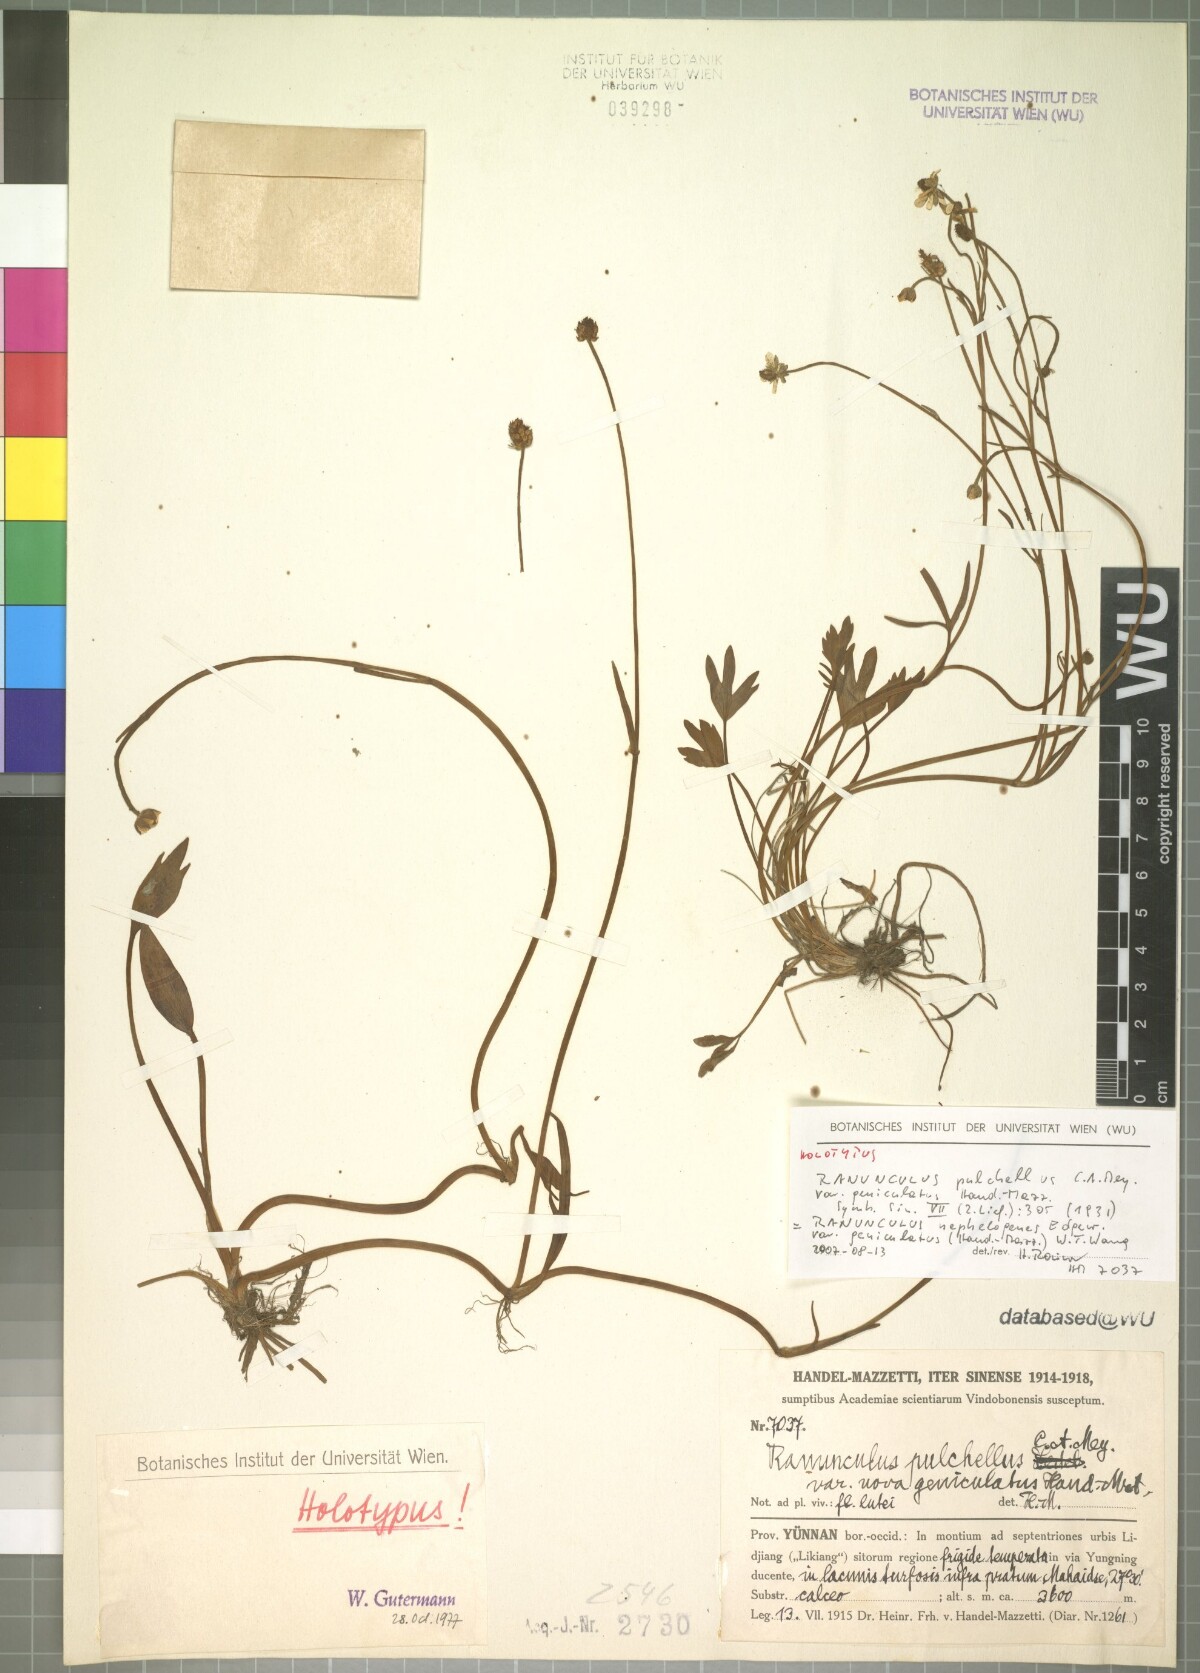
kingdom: Plantae
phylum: Tracheophyta
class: Magnoliopsida
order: Ranunculales
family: Ranunculaceae
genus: Ranunculus
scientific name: Ranunculus mazzettii
